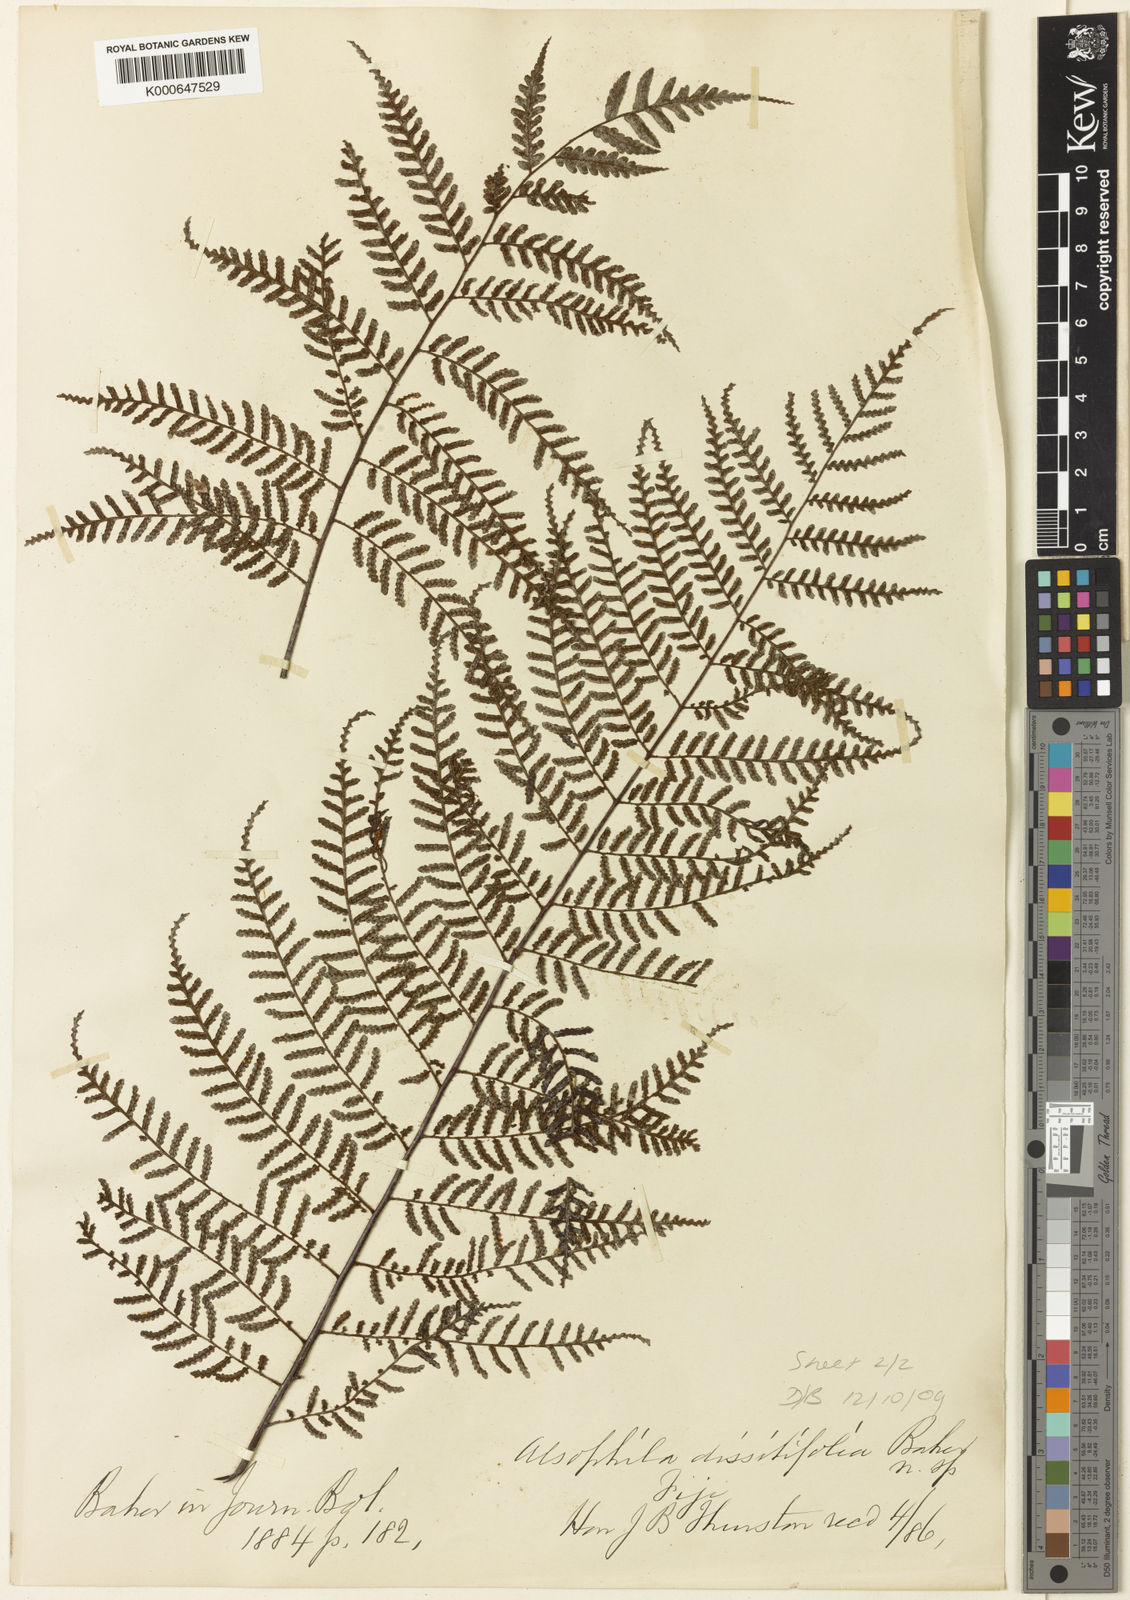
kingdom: Plantae
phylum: Tracheophyta
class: Polypodiopsida
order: Cyatheales
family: Cyatheaceae
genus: Gymnosphaera
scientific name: Gymnosphaera hornei
